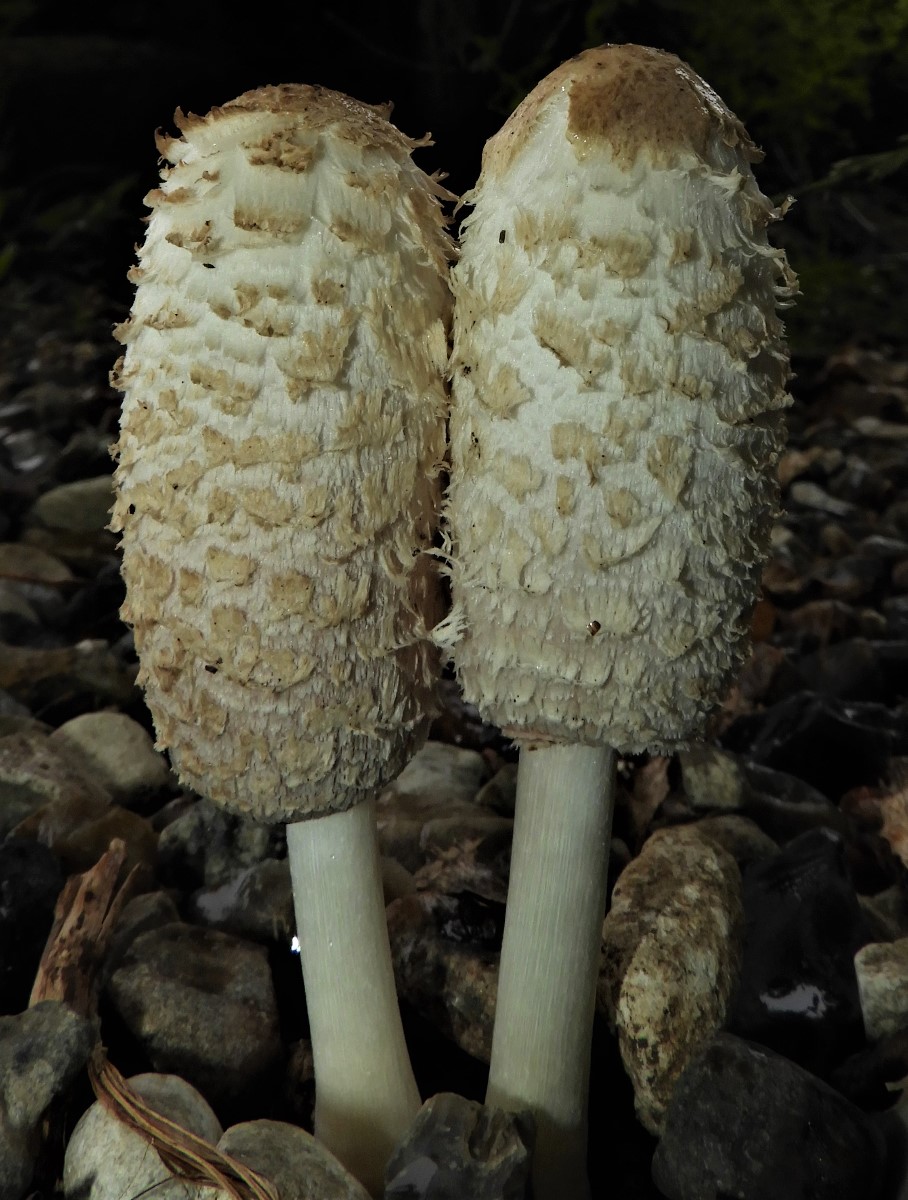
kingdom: Fungi
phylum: Basidiomycota
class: Agaricomycetes
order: Agaricales
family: Agaricaceae
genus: Coprinus
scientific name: Coprinus comatus
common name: stor parykhat
